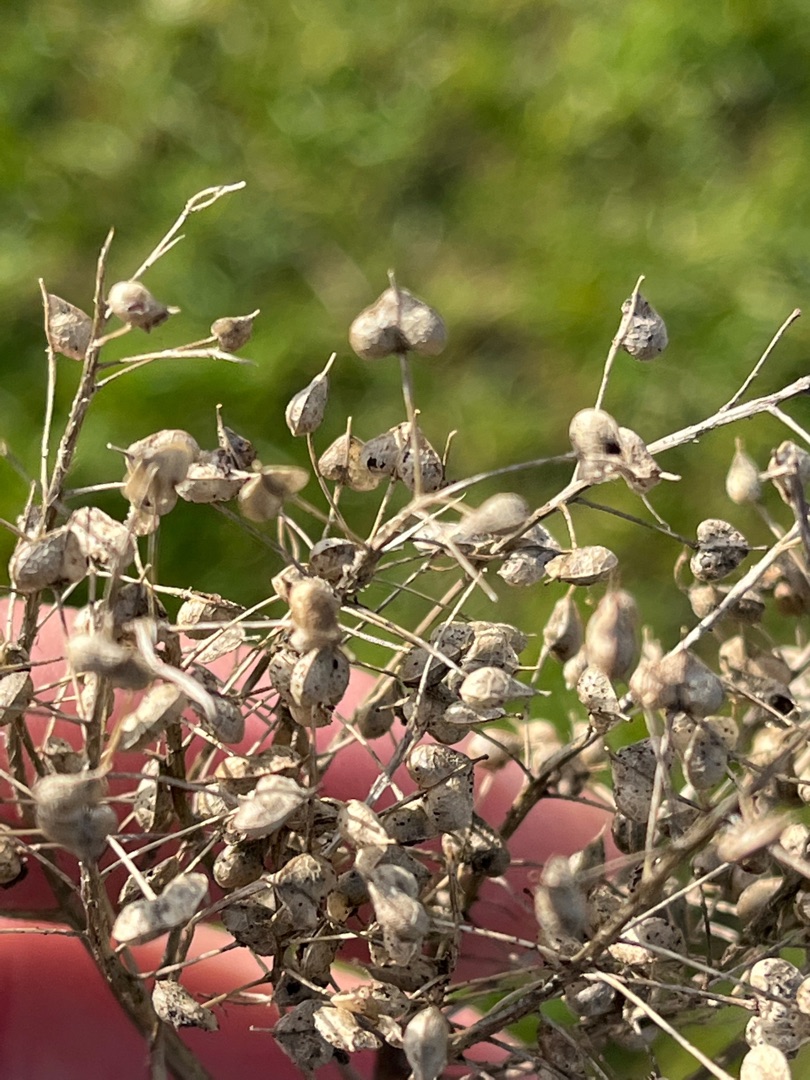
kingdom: Plantae
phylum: Tracheophyta
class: Magnoliopsida
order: Brassicales
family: Brassicaceae
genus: Lepidium
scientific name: Lepidium draba
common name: Hjerte-karse
